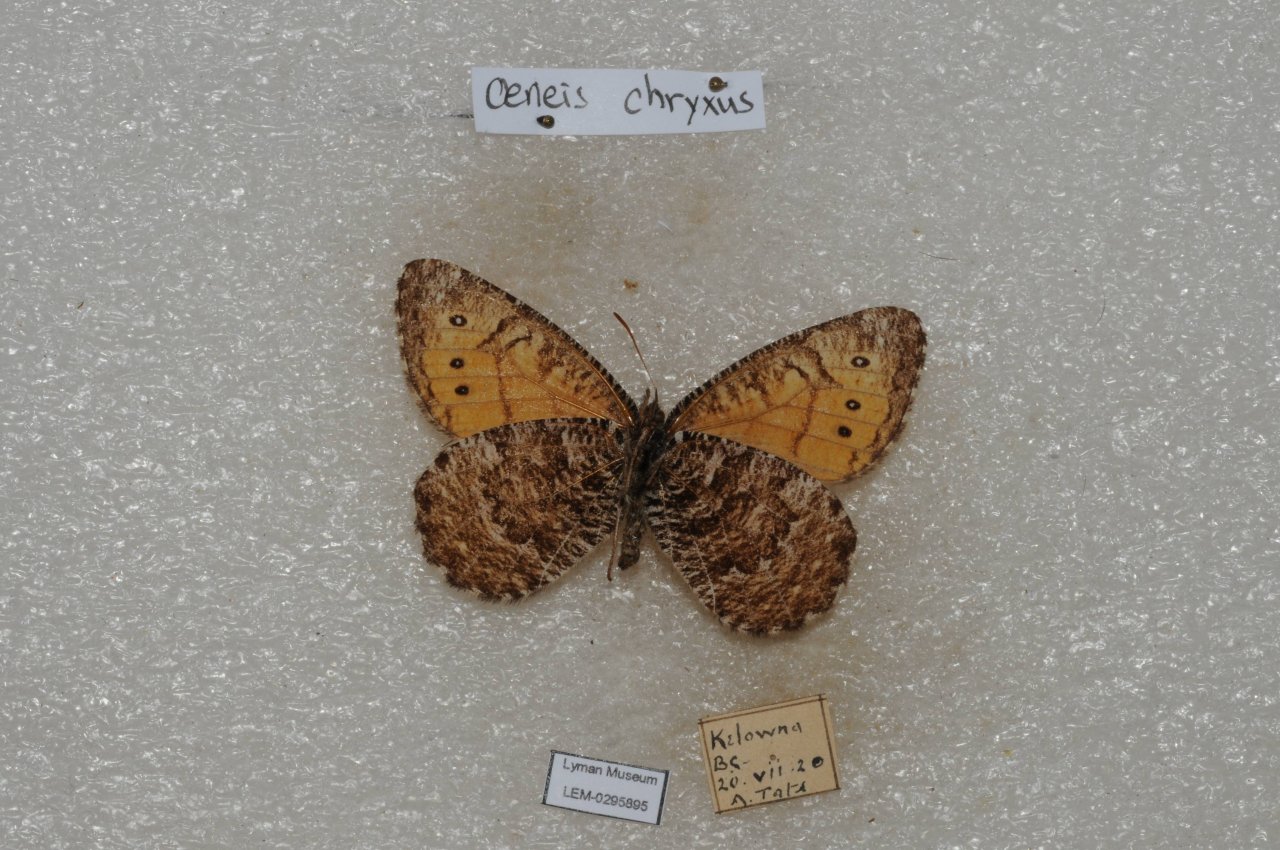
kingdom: Animalia
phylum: Arthropoda
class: Insecta
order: Lepidoptera
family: Nymphalidae
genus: Oeneis
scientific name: Oeneis chryxus
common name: Chryxus Arctic
